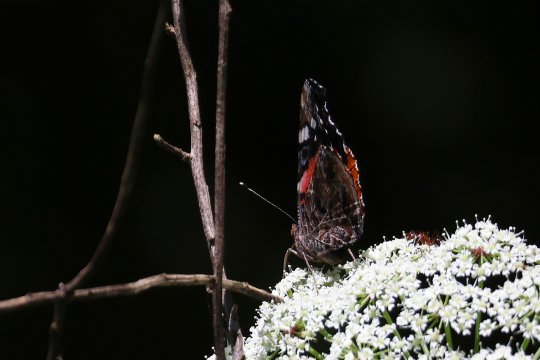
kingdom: Animalia
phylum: Arthropoda
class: Insecta
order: Lepidoptera
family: Nymphalidae
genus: Vanessa
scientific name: Vanessa atalanta
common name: Red Admiral
